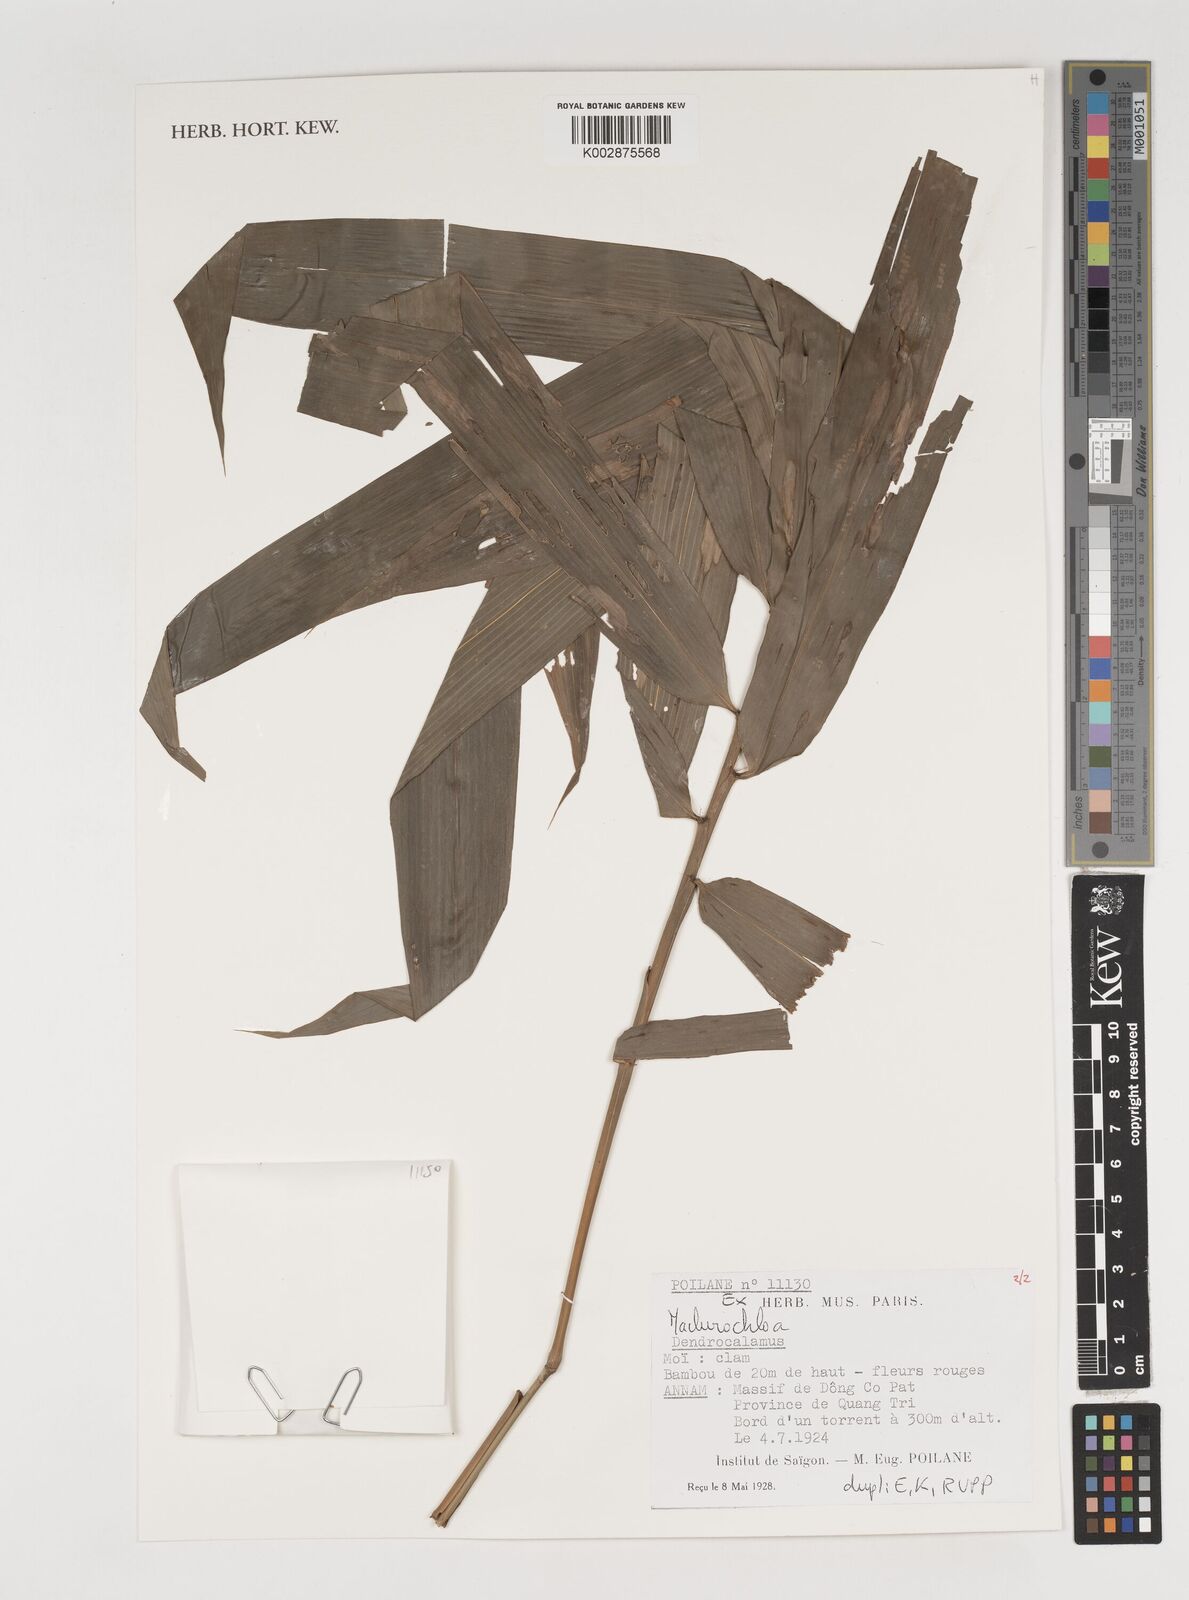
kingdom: Plantae
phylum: Tracheophyta
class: Liliopsida
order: Poales
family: Poaceae
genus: Kinabaluchloa
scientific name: Kinabaluchloa
